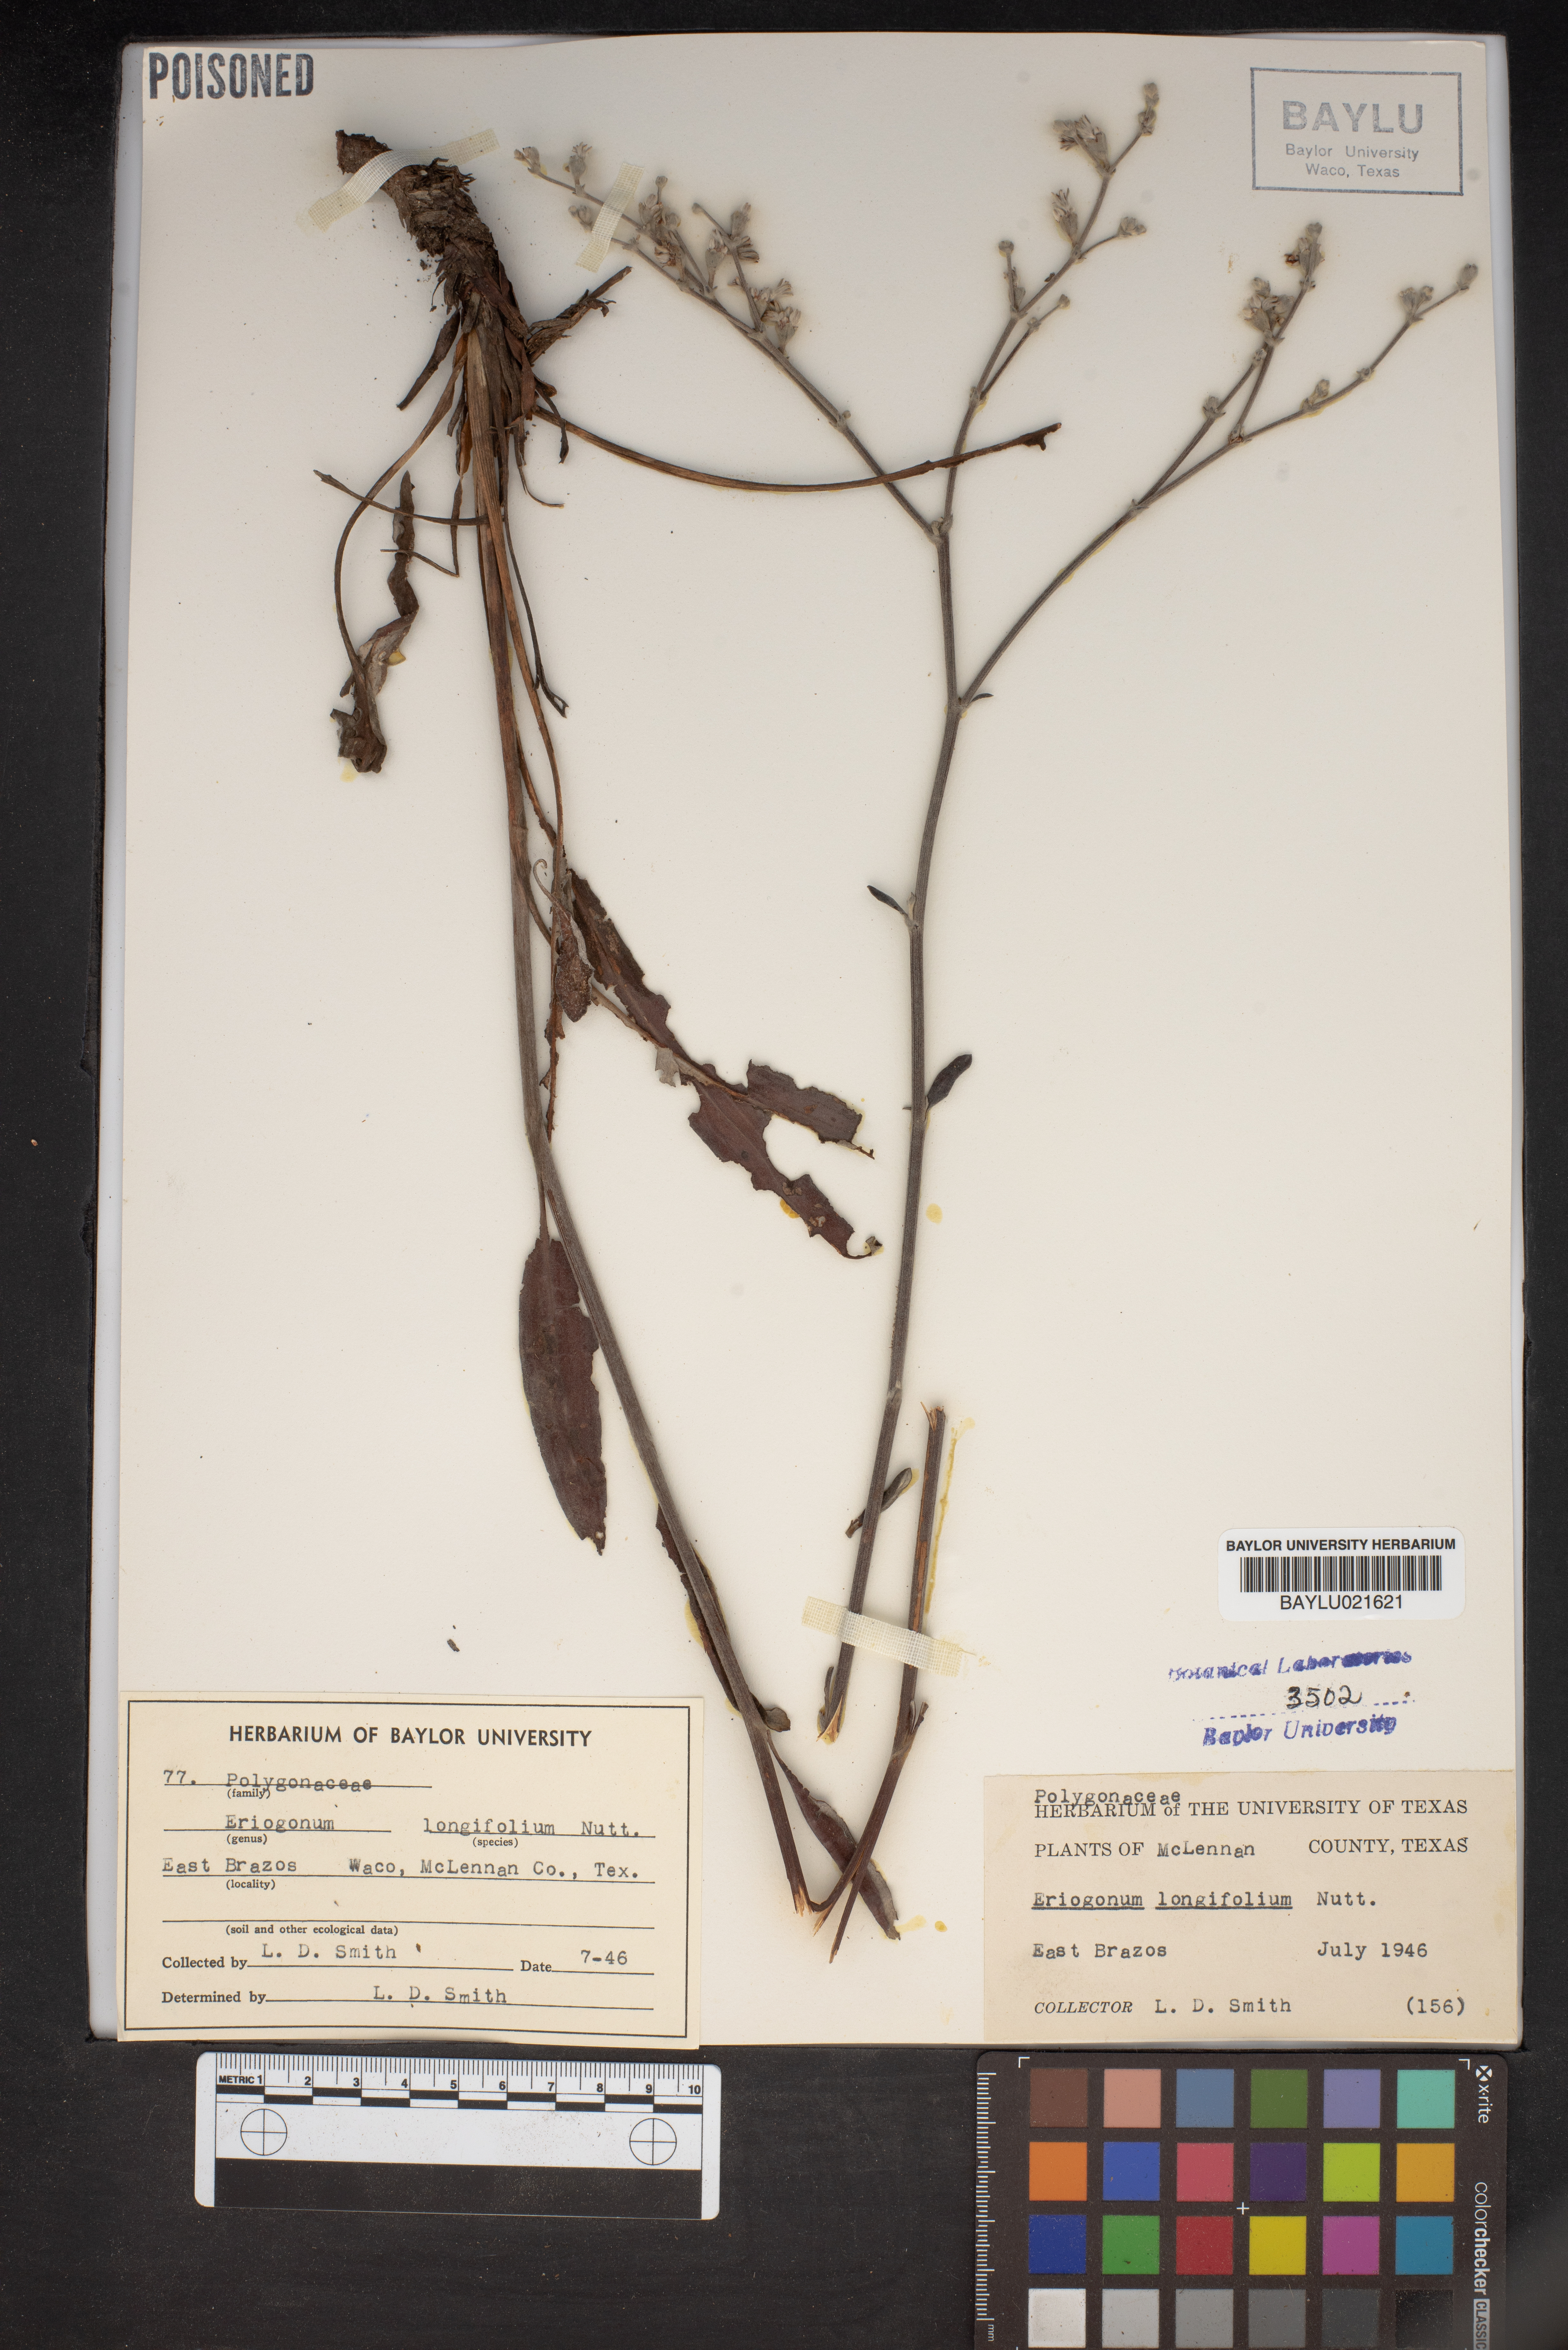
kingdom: Plantae
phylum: Tracheophyta
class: Magnoliopsida
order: Caryophyllales
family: Polygonaceae
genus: Eriogonum
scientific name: Eriogonum longifolium
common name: Longleaf wild buckwheat
